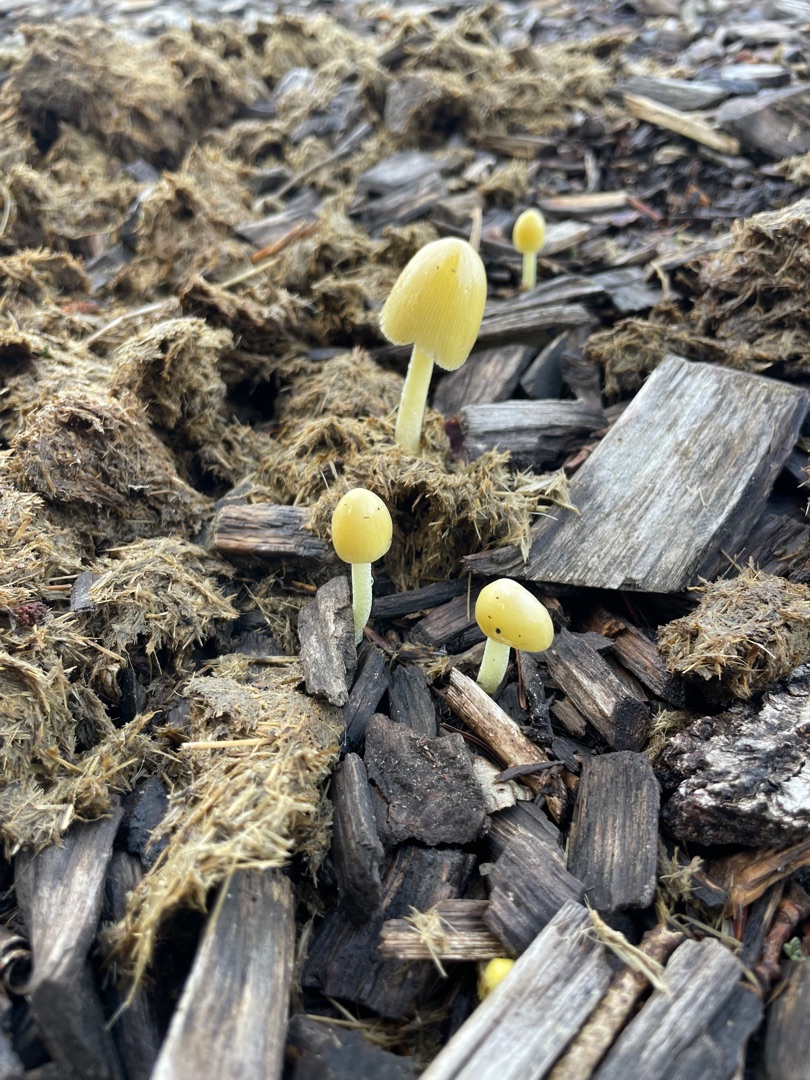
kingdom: Fungi
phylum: Basidiomycota
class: Agaricomycetes
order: Agaricales
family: Bolbitiaceae
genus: Bolbitius
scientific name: Bolbitius titubans
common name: Almindelig gulhat
